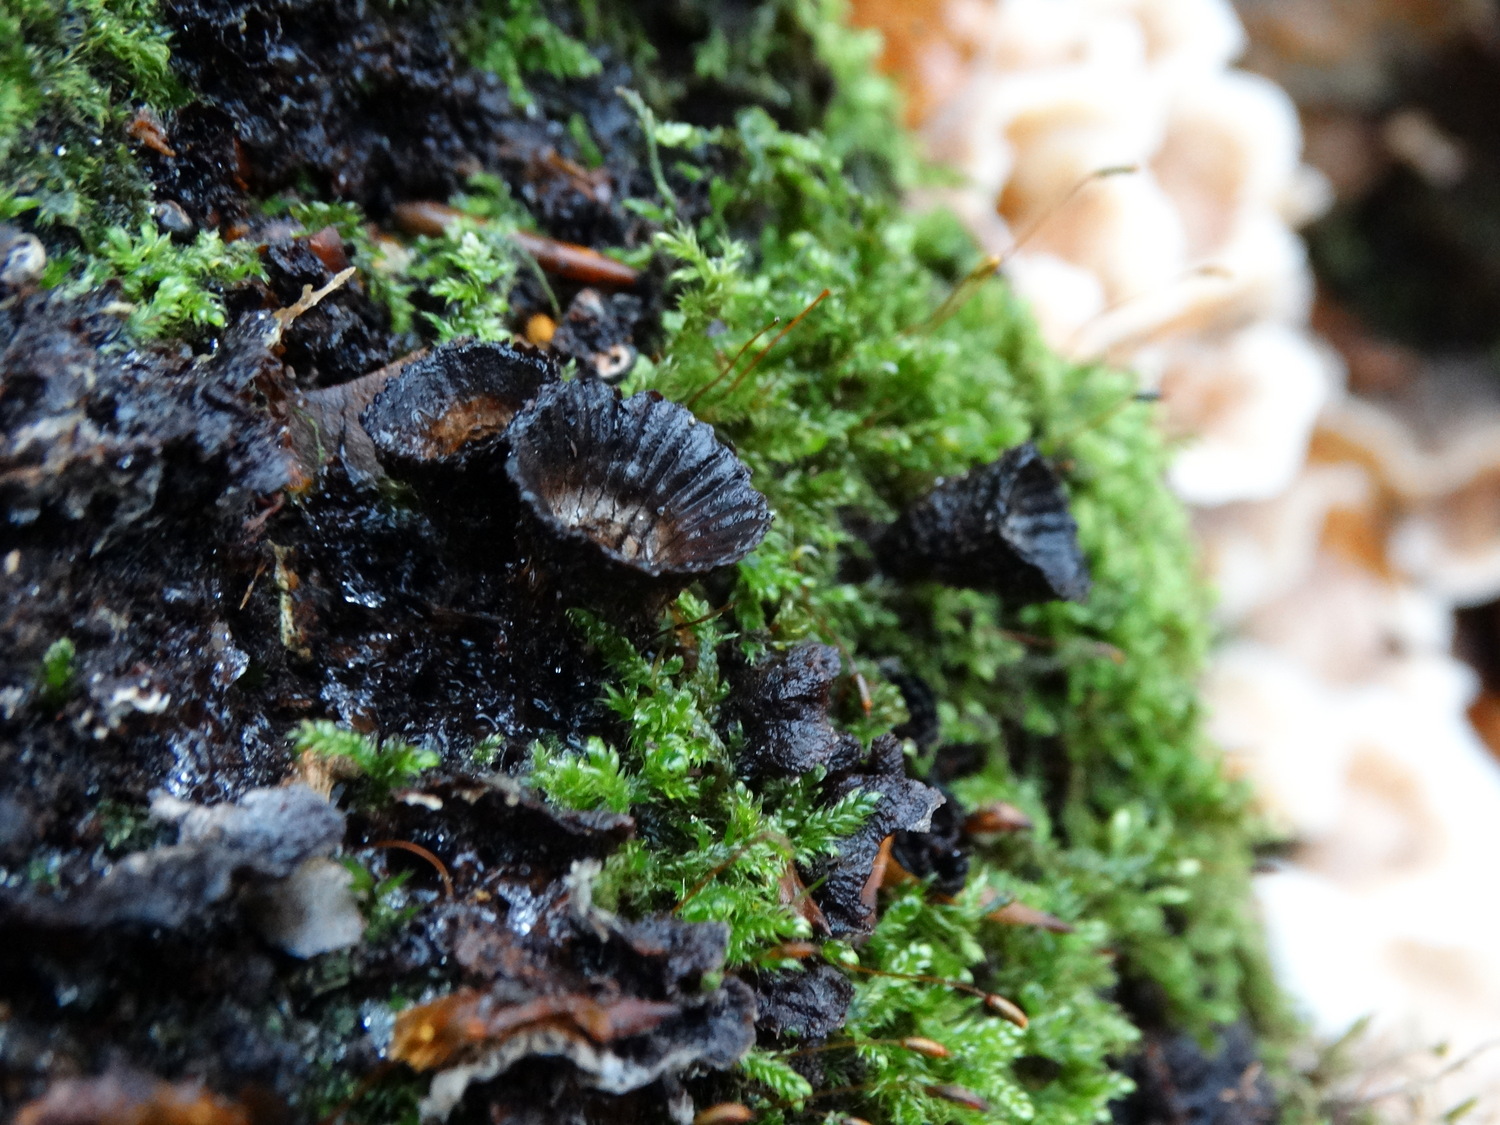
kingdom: Fungi
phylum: Basidiomycota
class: Agaricomycetes
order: Agaricales
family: Agaricaceae
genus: Cyathus
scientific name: Cyathus striatus
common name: stribet redesvamp
